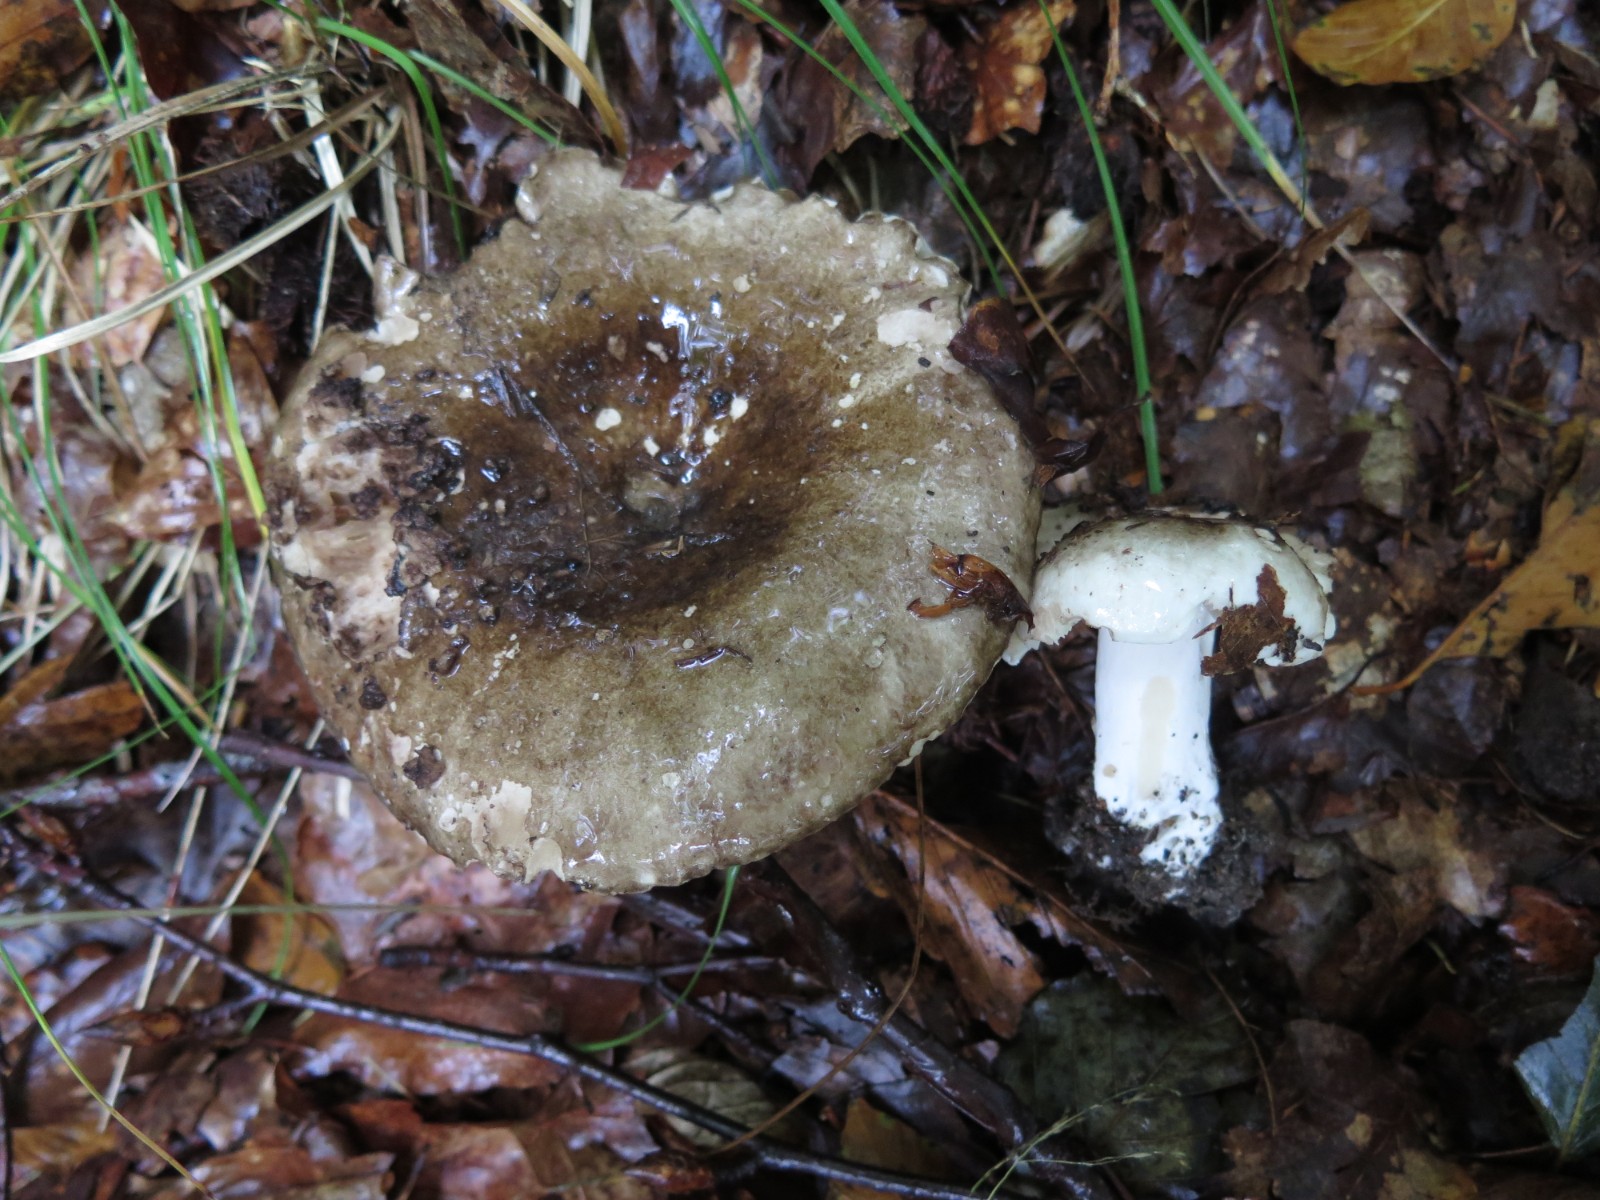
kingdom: Fungi
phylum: Basidiomycota
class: Agaricomycetes
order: Russulales
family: Russulaceae
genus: Russula
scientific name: Russula adusta
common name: sværtende skørhat
